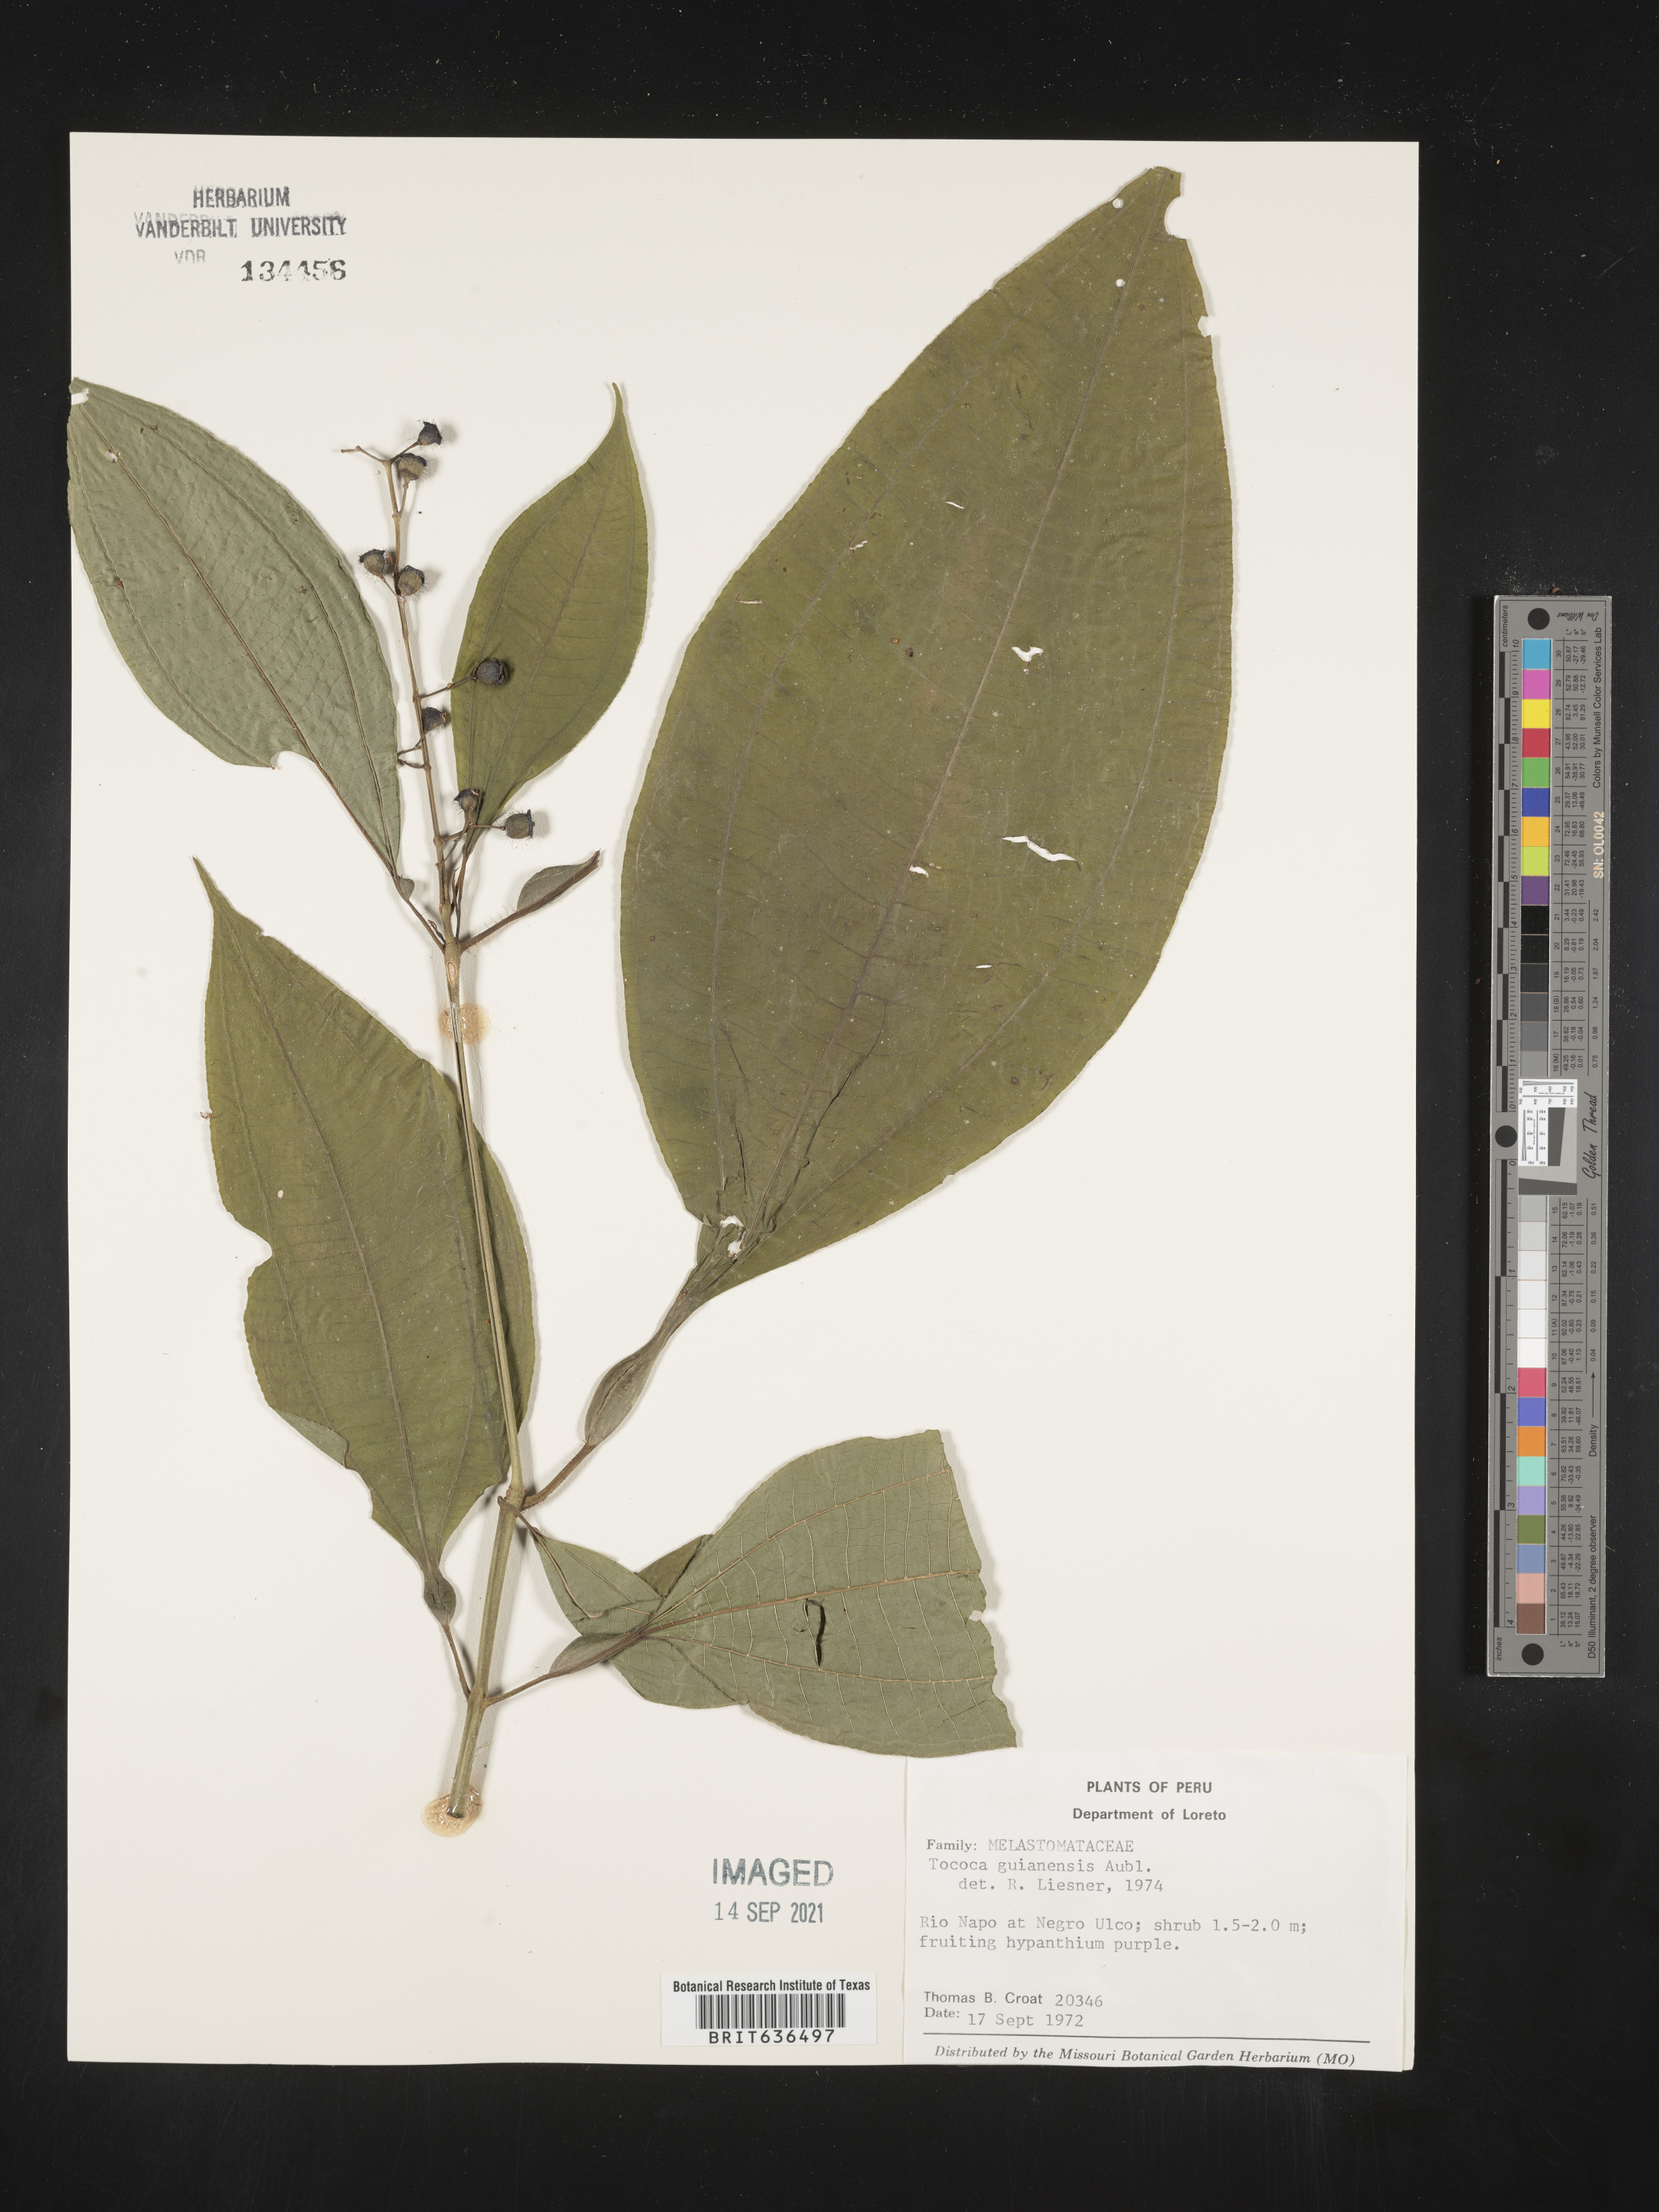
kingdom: Plantae
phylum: Tracheophyta
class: Magnoliopsida
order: Myrtales
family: Melastomataceae
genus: Tibouchina
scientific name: Tibouchina
